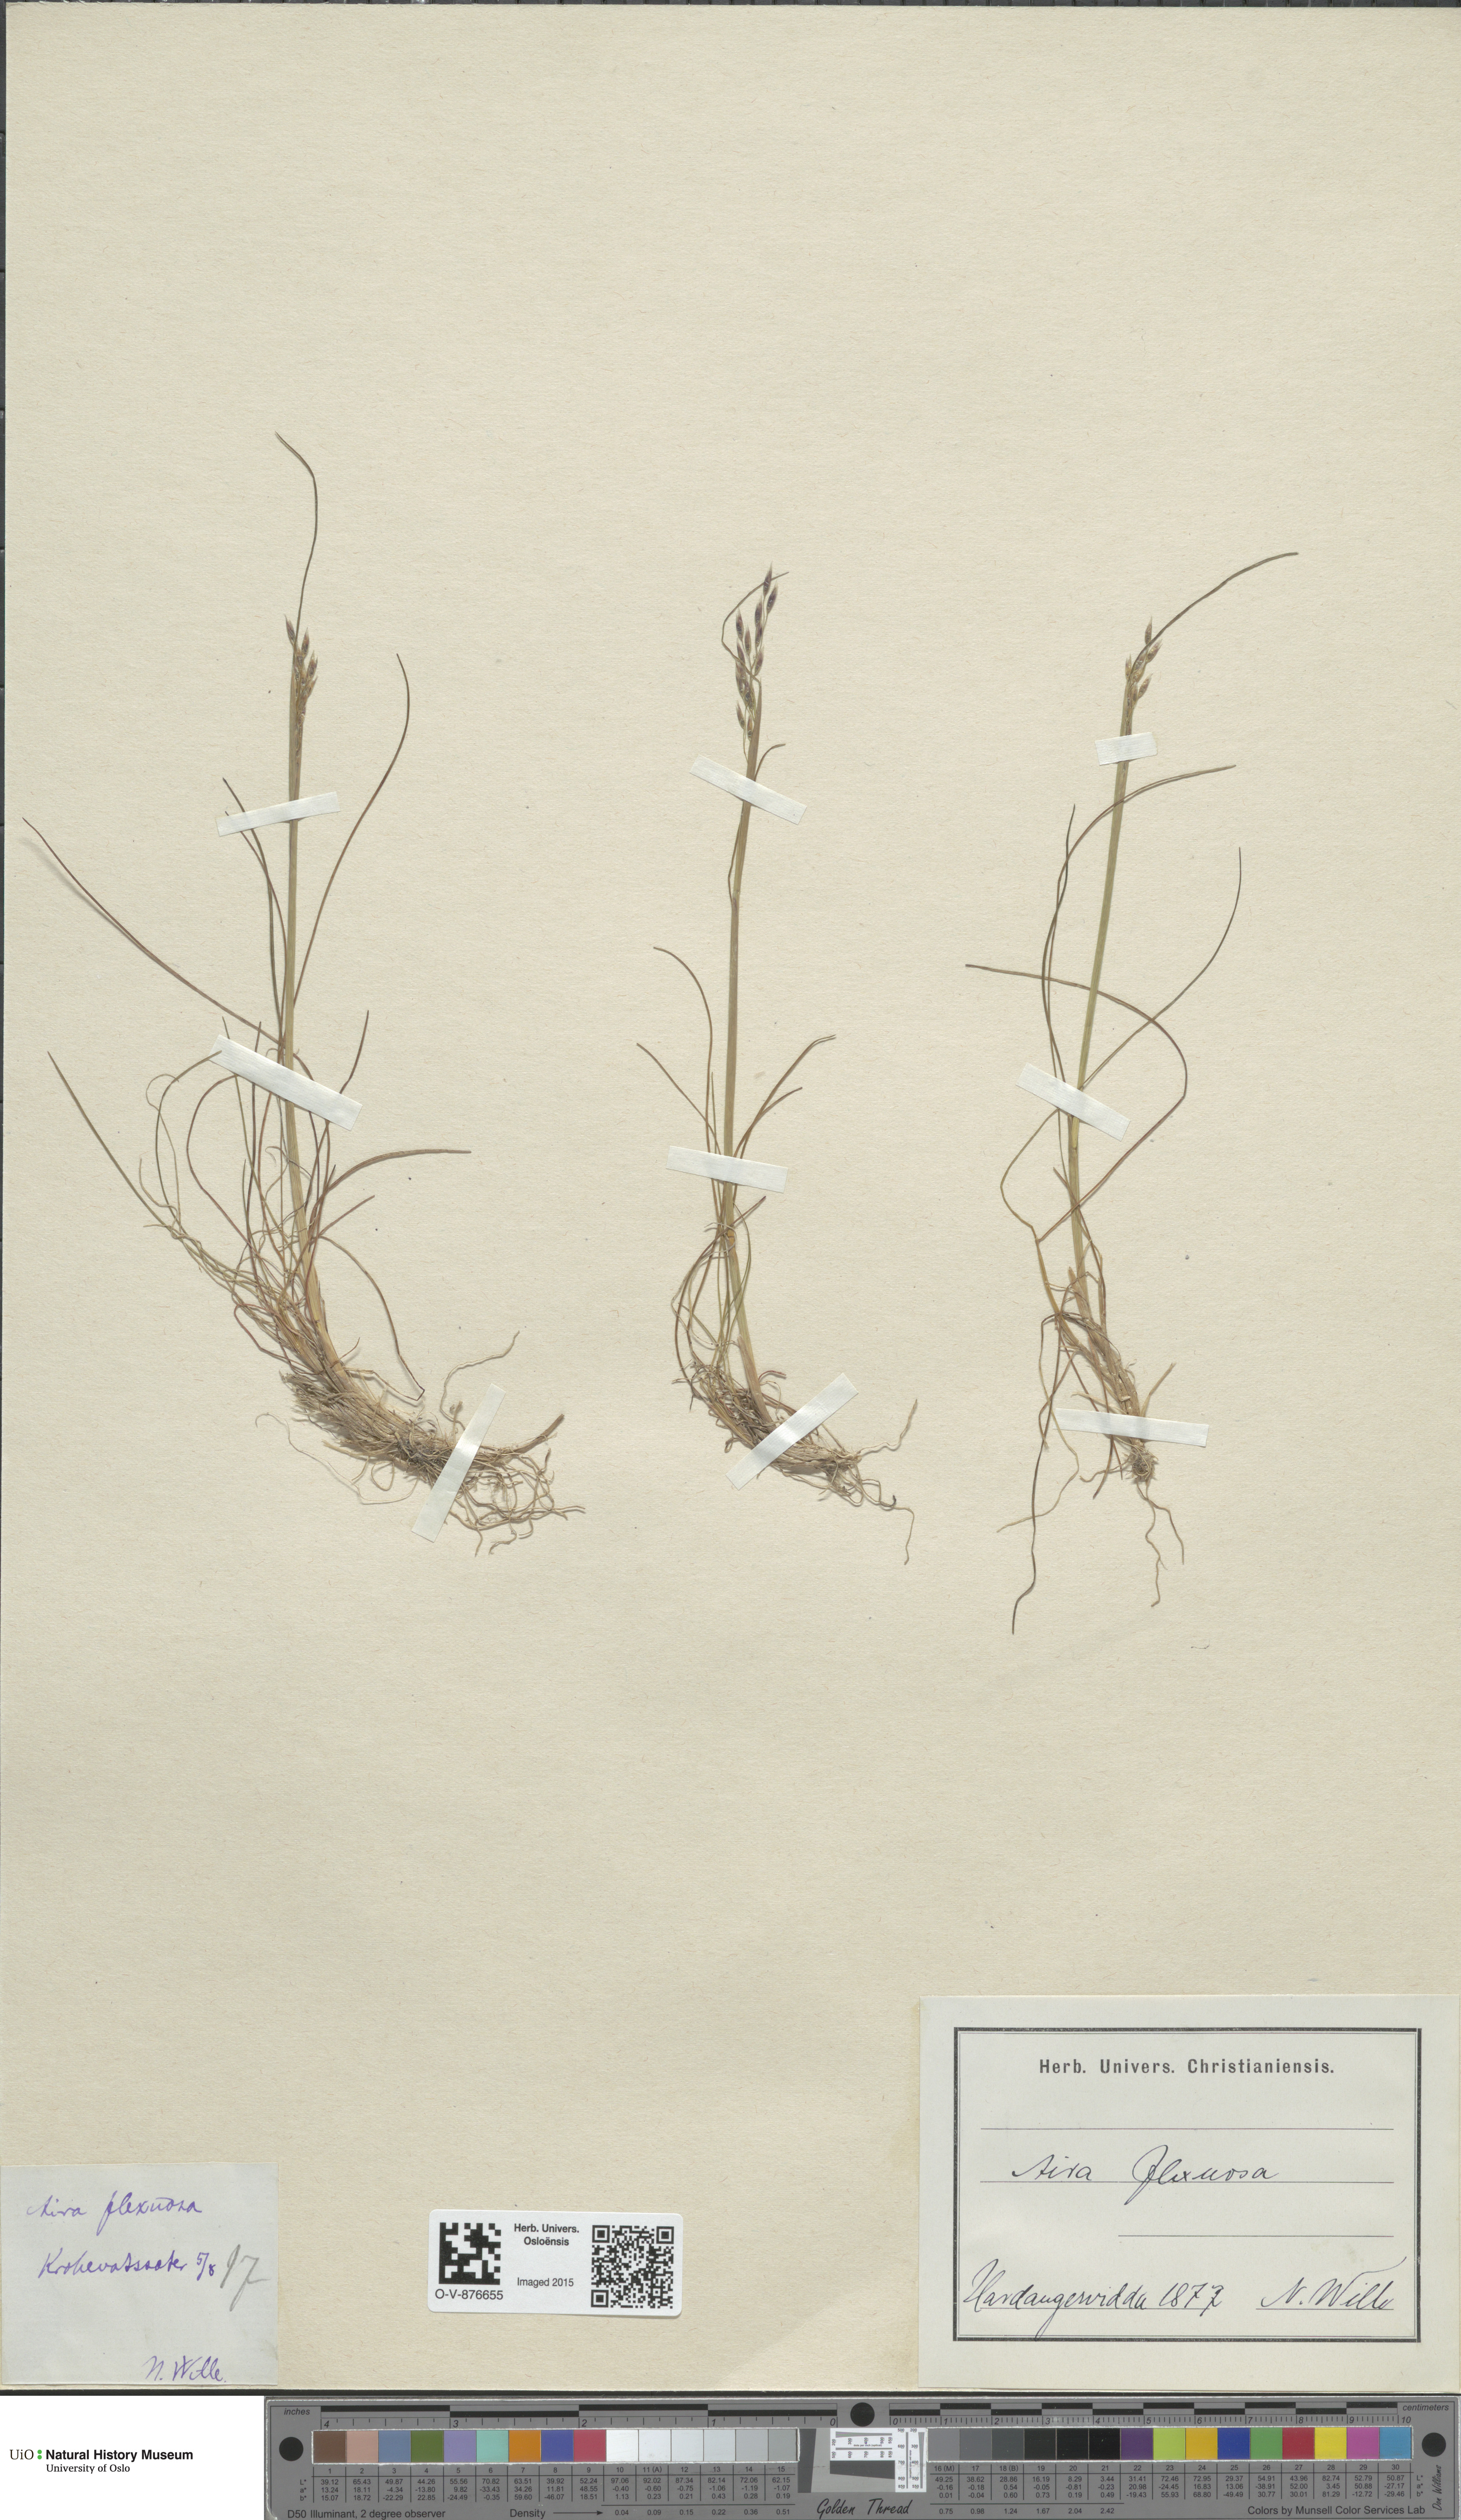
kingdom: Plantae
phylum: Tracheophyta
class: Liliopsida
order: Poales
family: Poaceae
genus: Avenella
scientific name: Avenella flexuosa
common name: Wavy hairgrass
